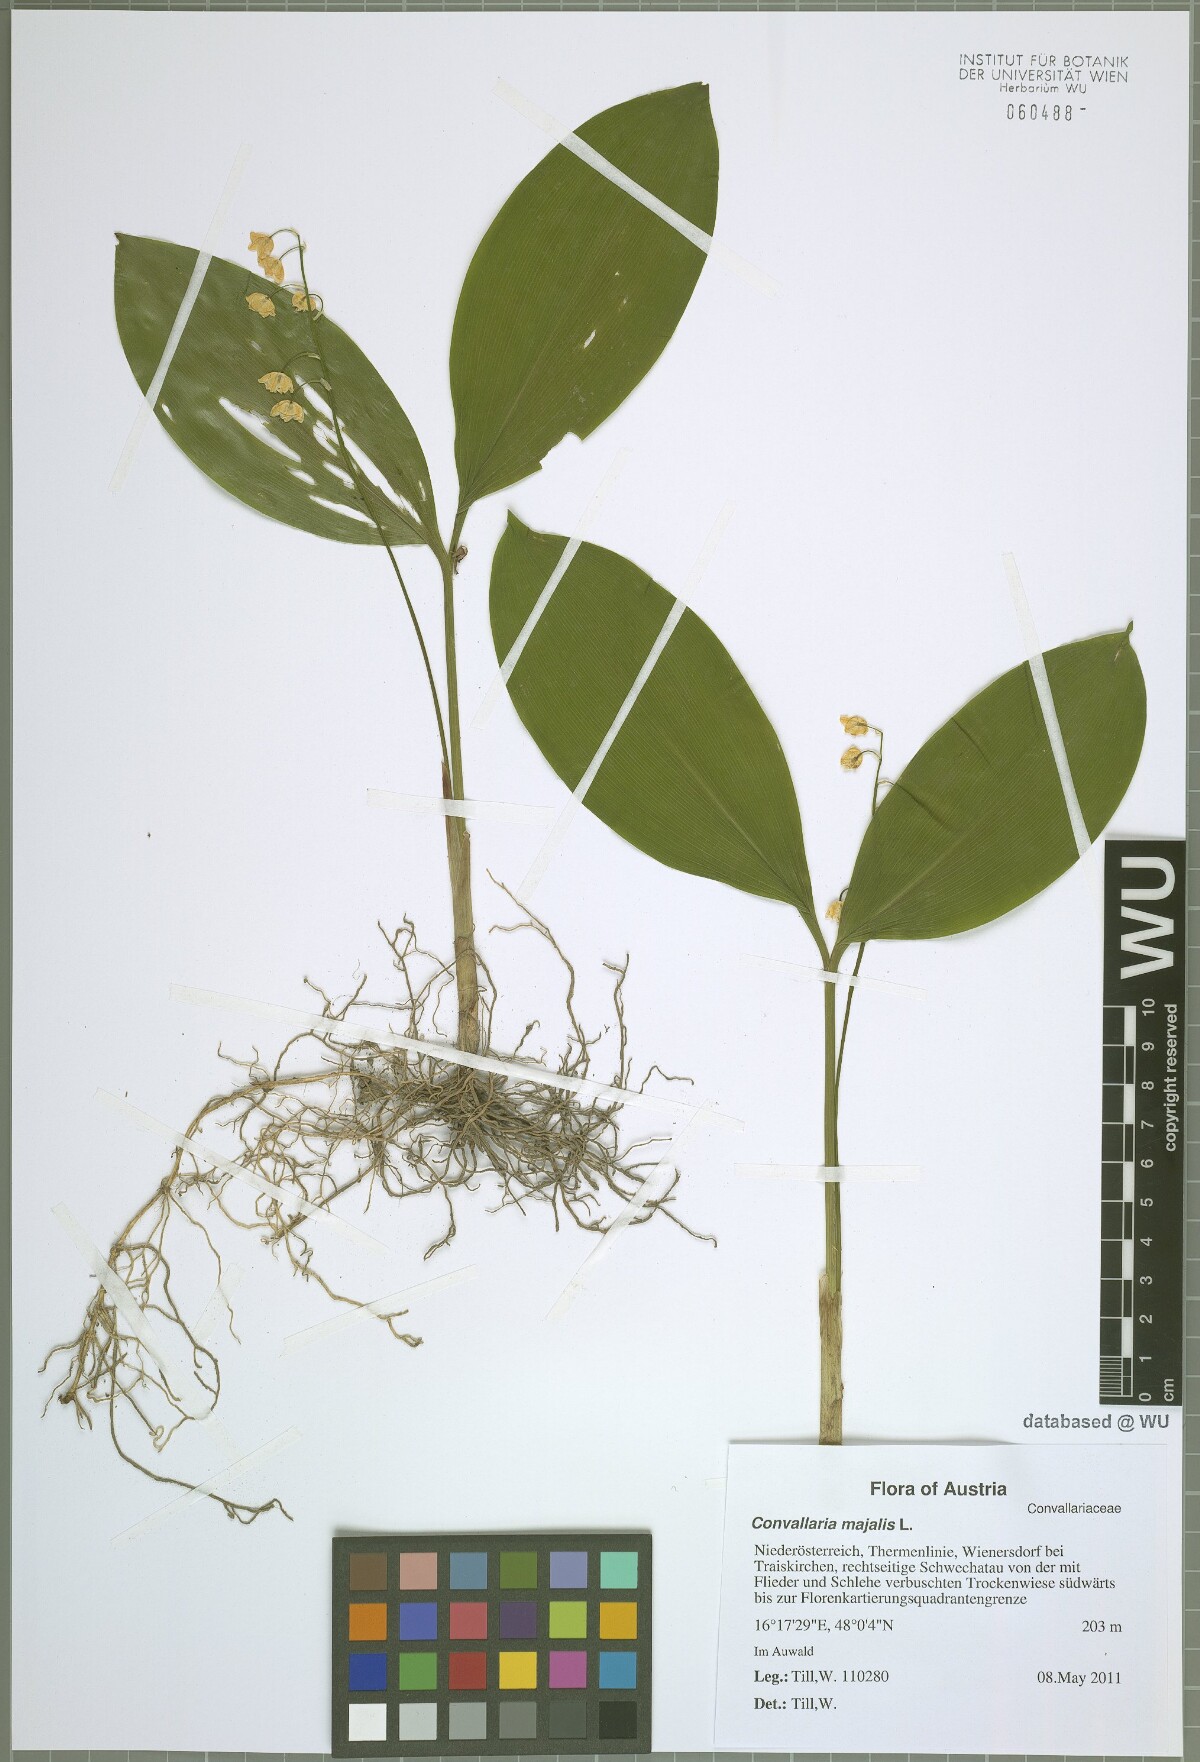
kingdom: Plantae
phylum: Tracheophyta
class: Liliopsida
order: Asparagales
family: Asparagaceae
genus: Convallaria
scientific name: Convallaria majalis
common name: Lily-of-the-valley
